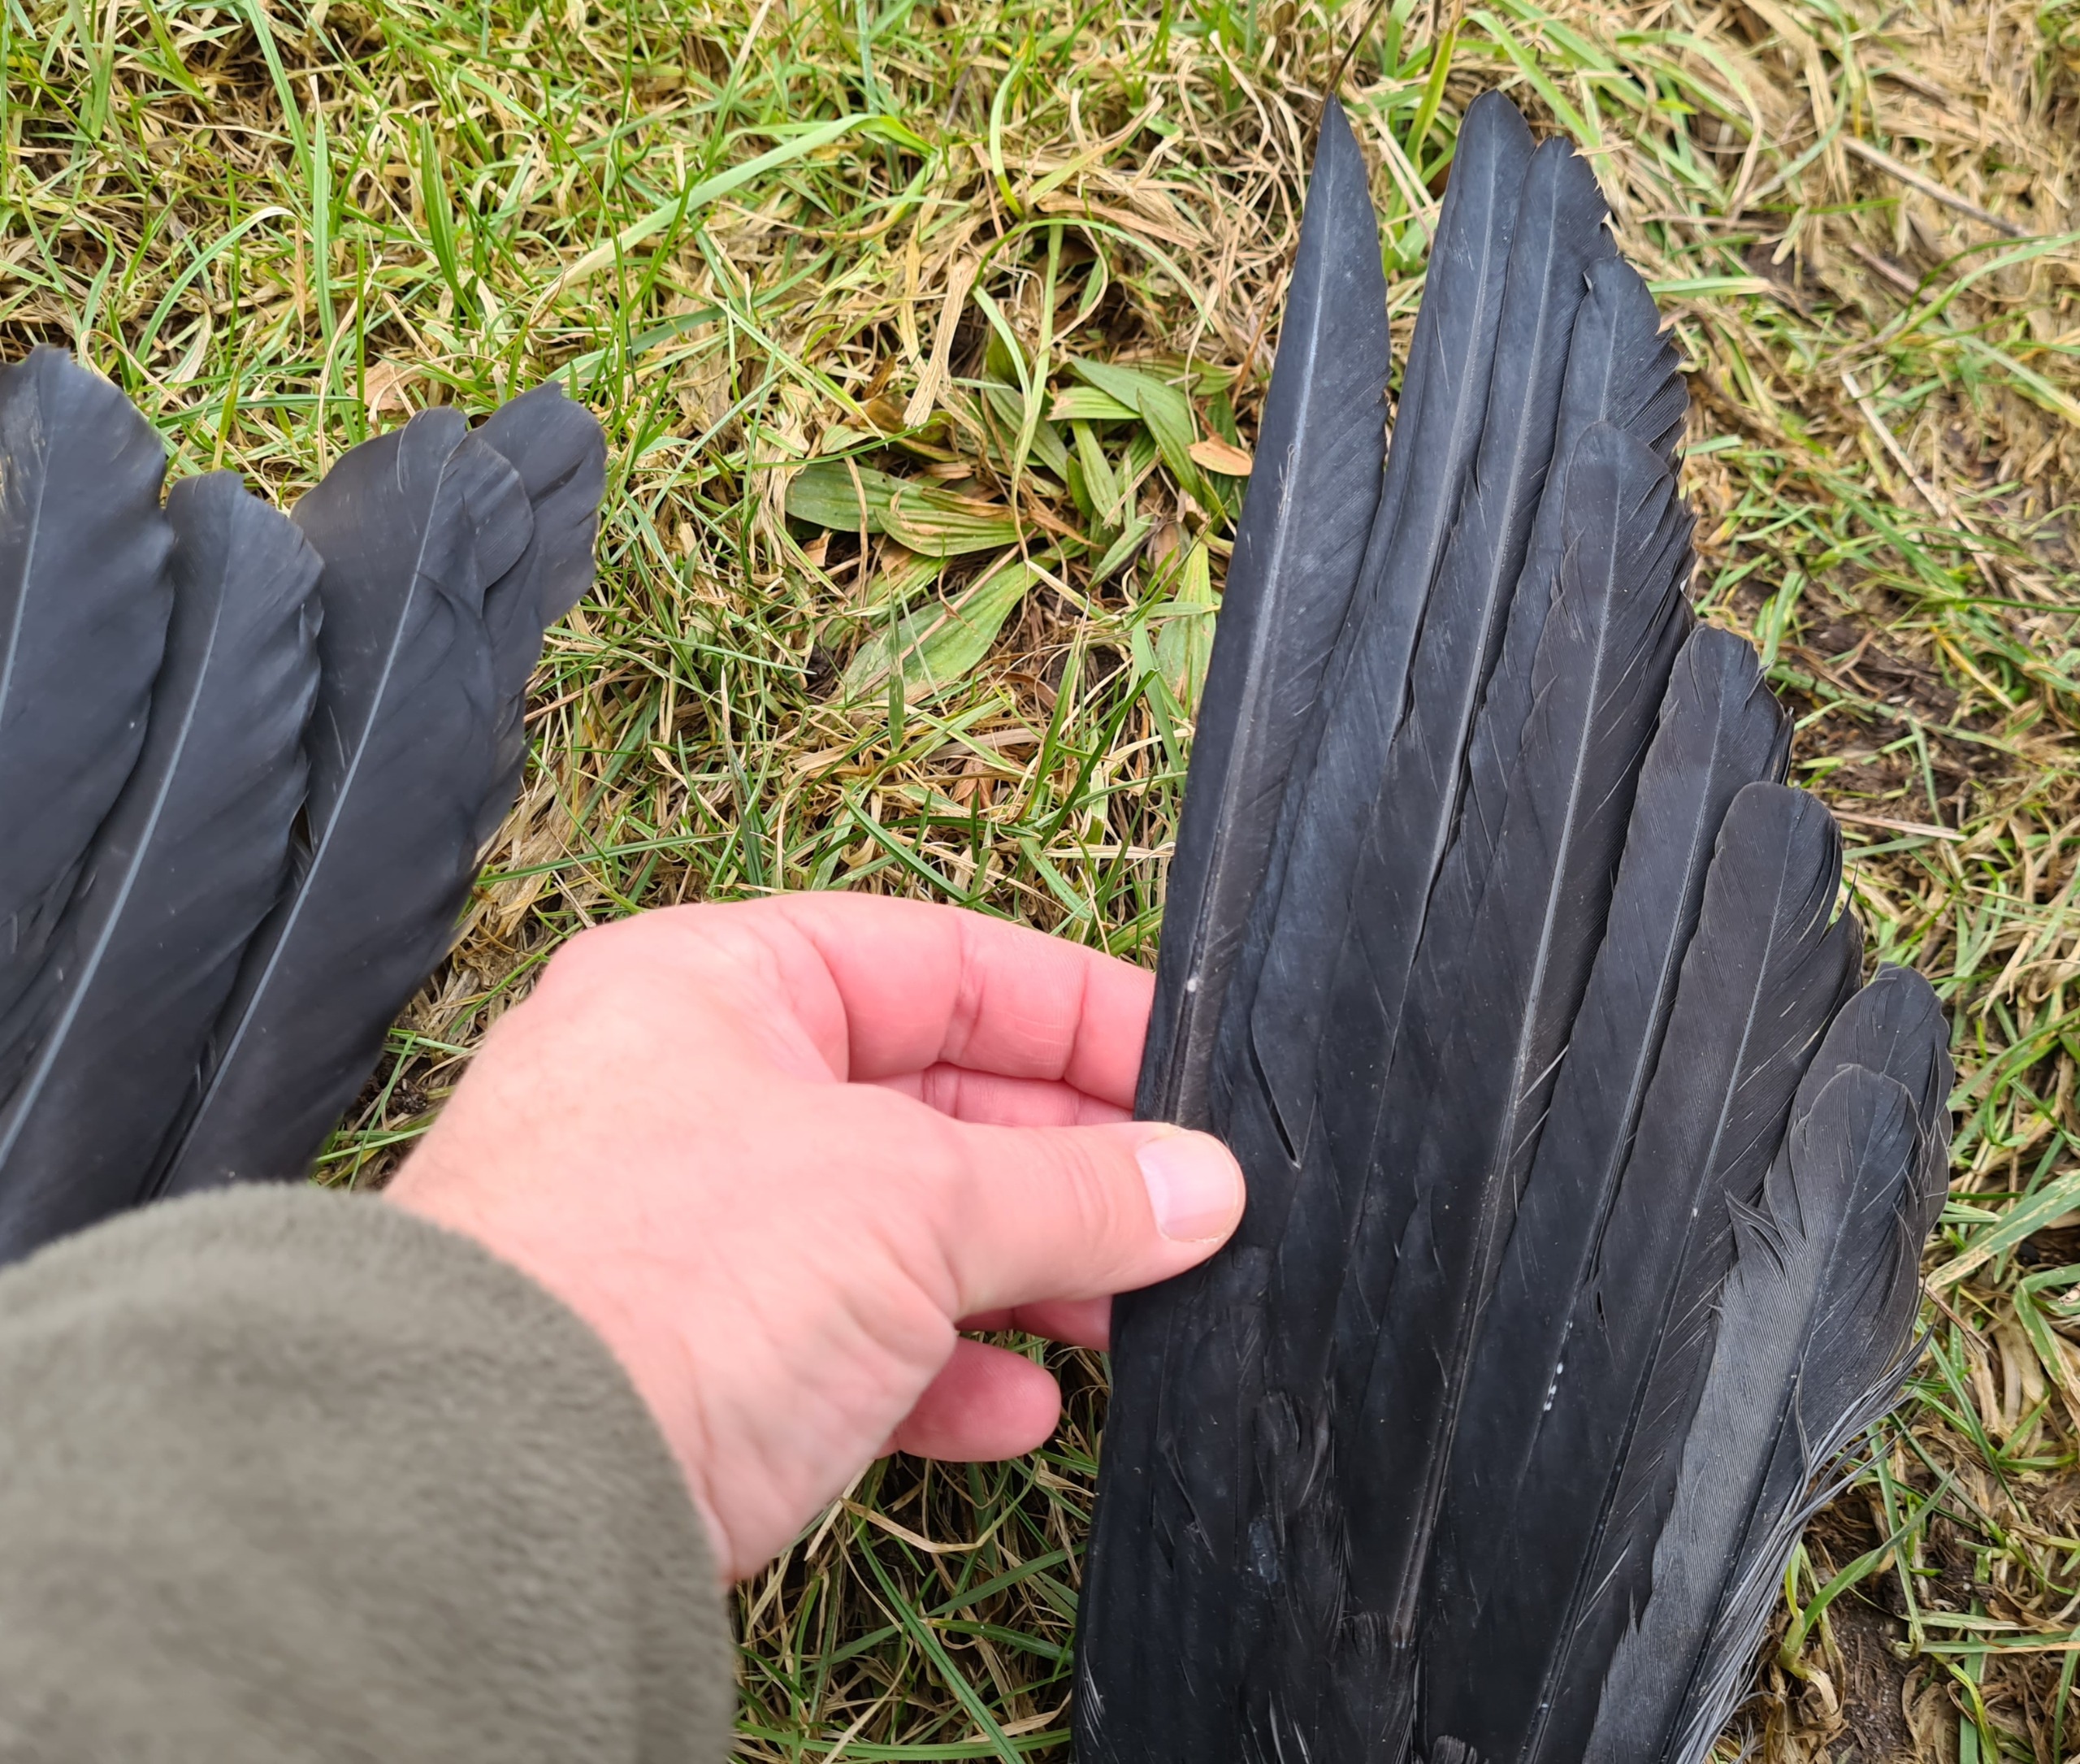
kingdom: Animalia
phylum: Chordata
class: Aves
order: Pelecaniformes
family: Ardeidae
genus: Ardea
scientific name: Ardea cinerea
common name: Fiskehejre
